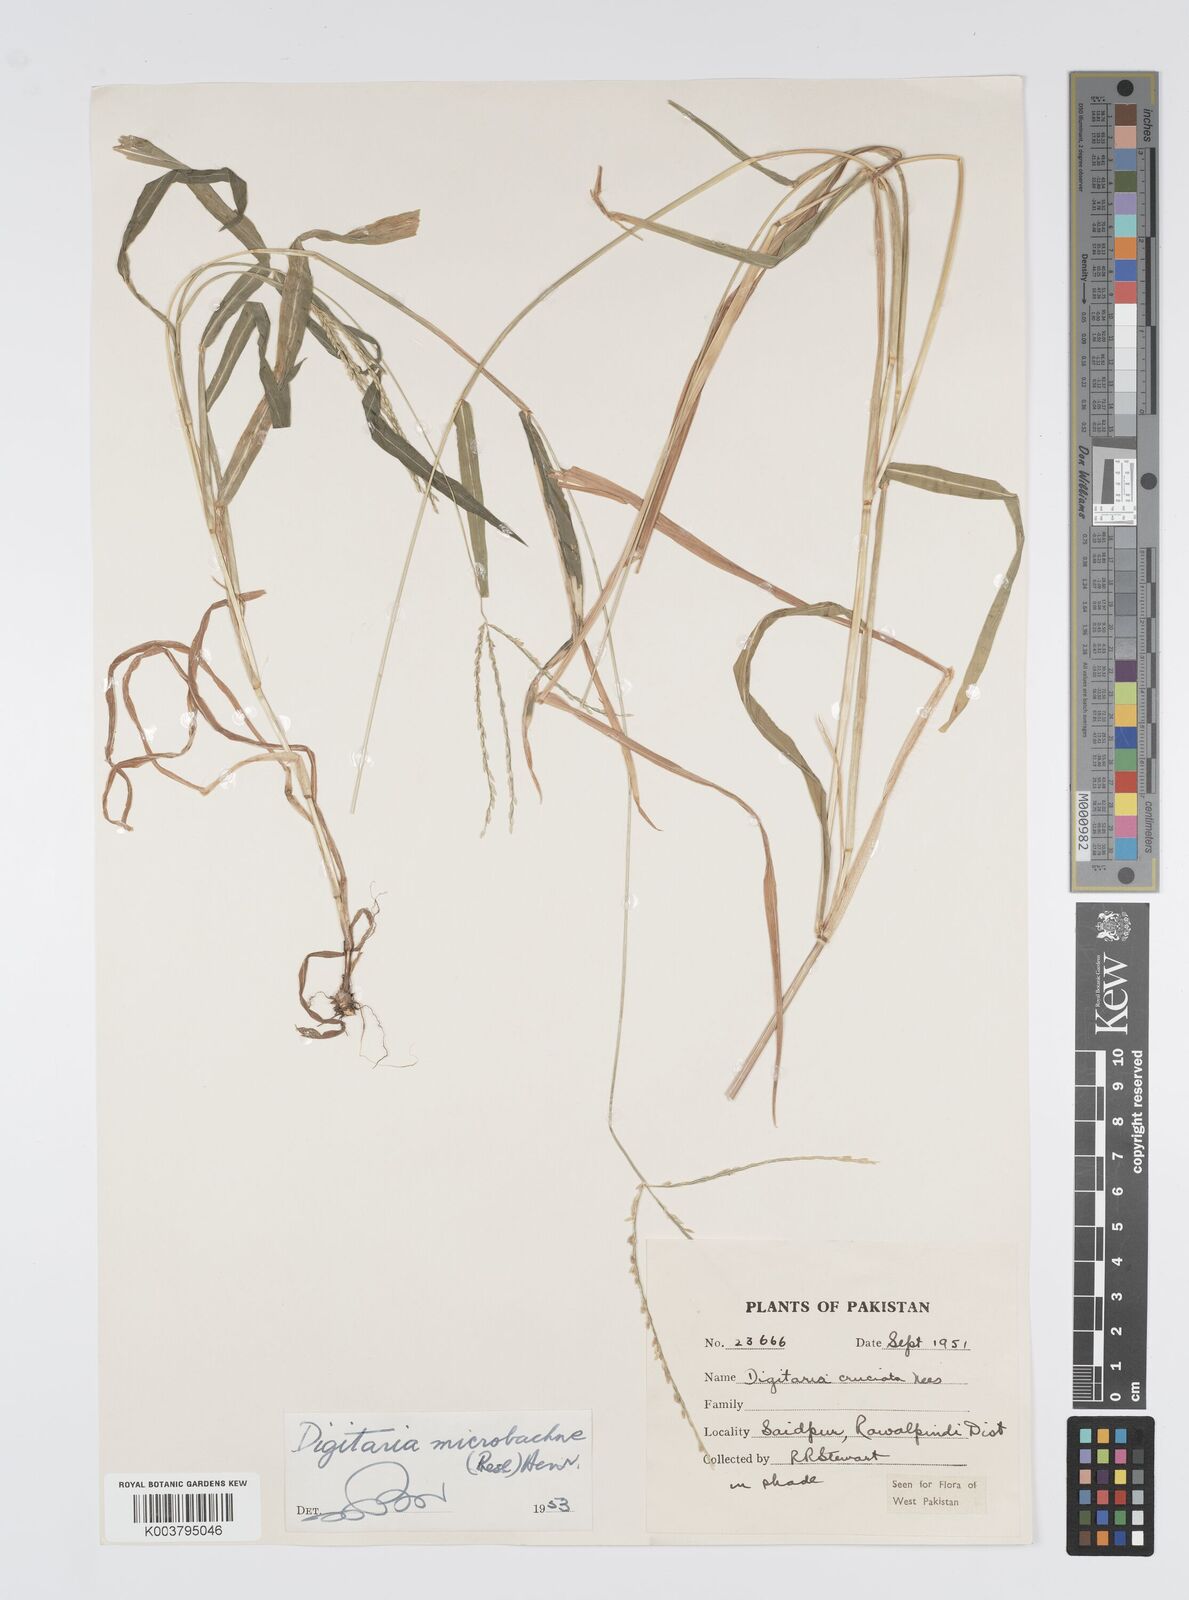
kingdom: Plantae
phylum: Tracheophyta
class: Liliopsida
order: Poales
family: Poaceae
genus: Digitaria
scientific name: Digitaria setigera
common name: East indian crabgrass
